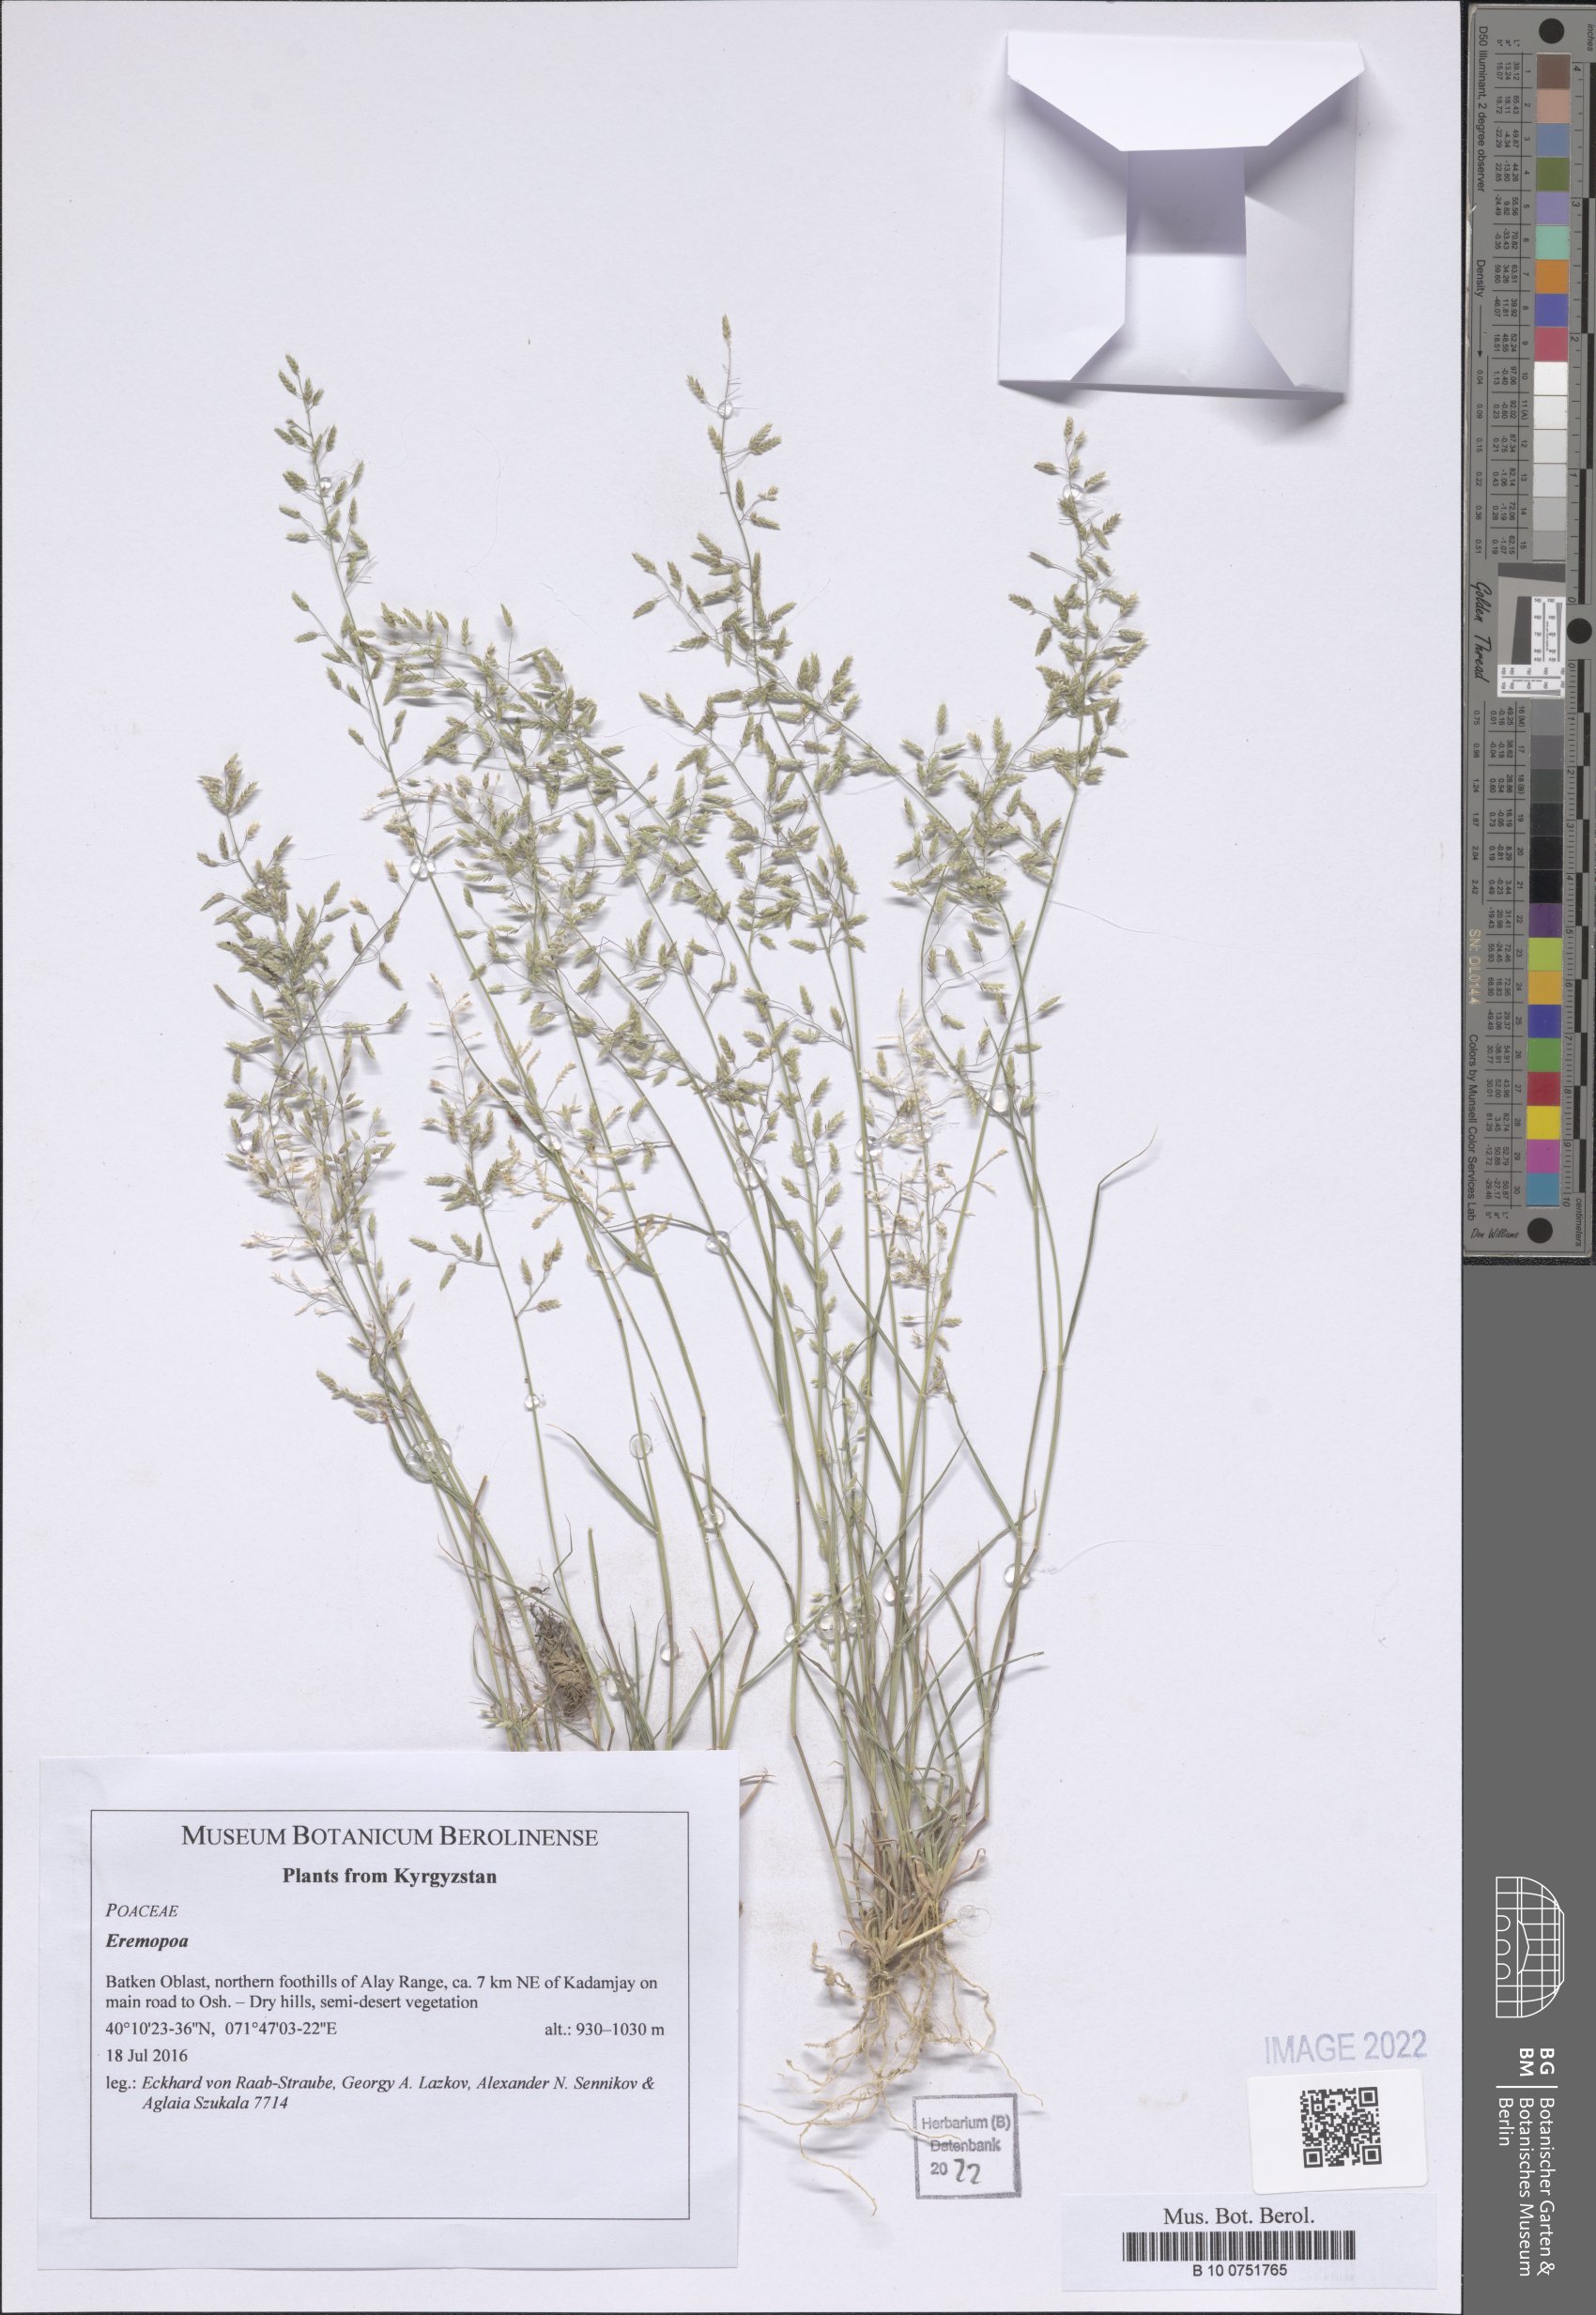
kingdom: Plantae
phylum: Tracheophyta
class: Liliopsida
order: Poales
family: Poaceae
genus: Poa
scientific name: Poa
